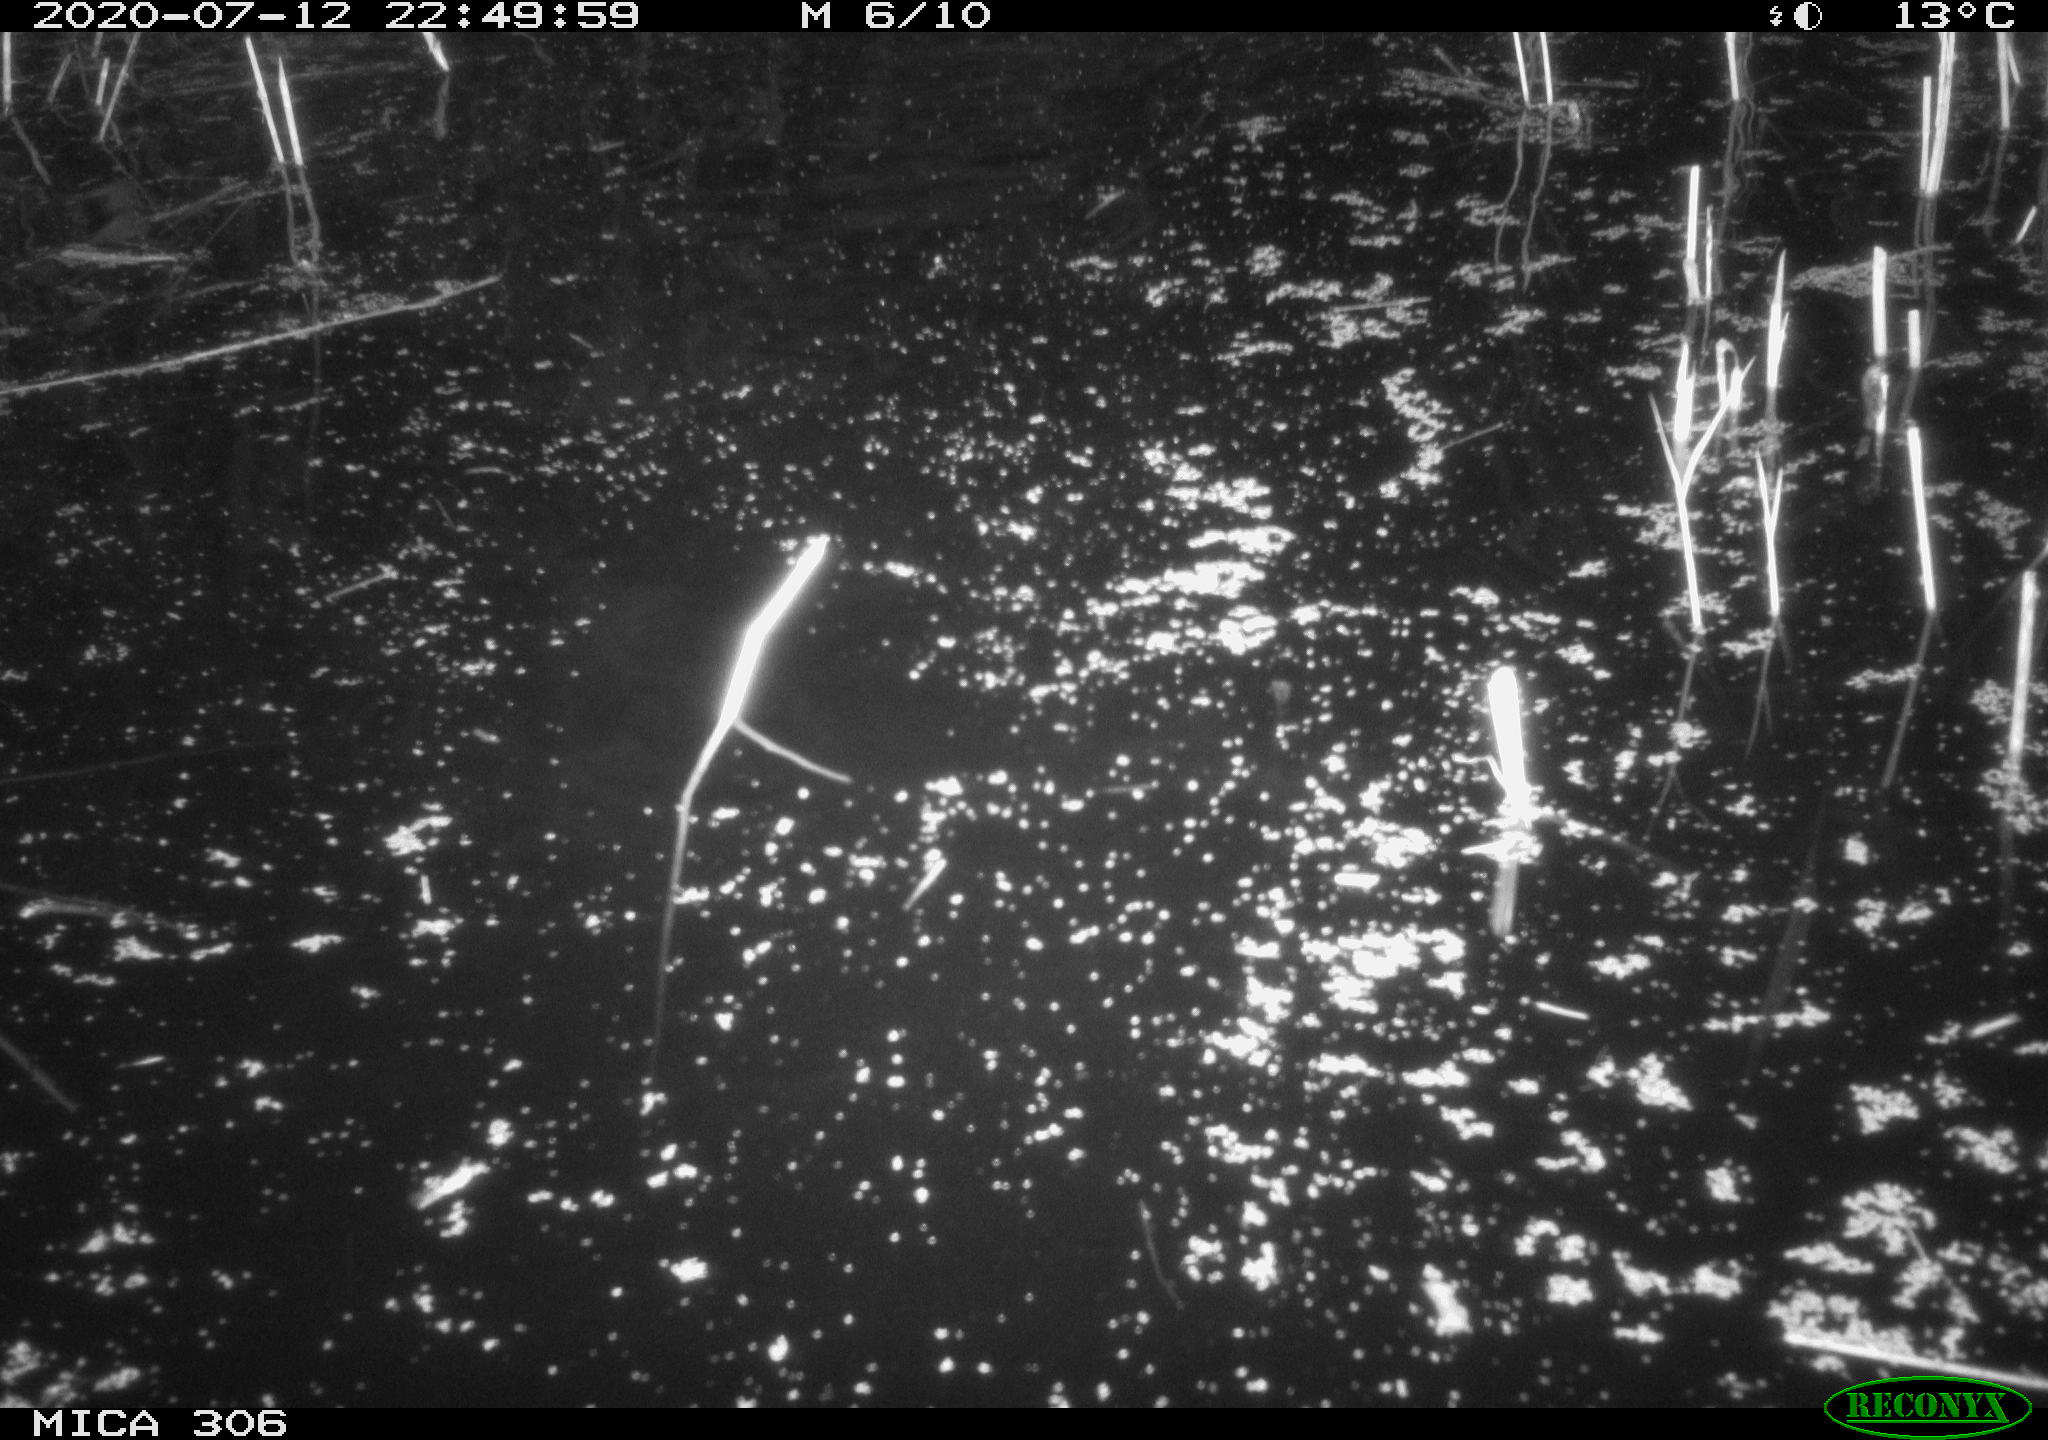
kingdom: Animalia
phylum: Chordata
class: Mammalia
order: Rodentia
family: Cricetidae
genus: Ondatra
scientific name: Ondatra zibethicus
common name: Muskrat
